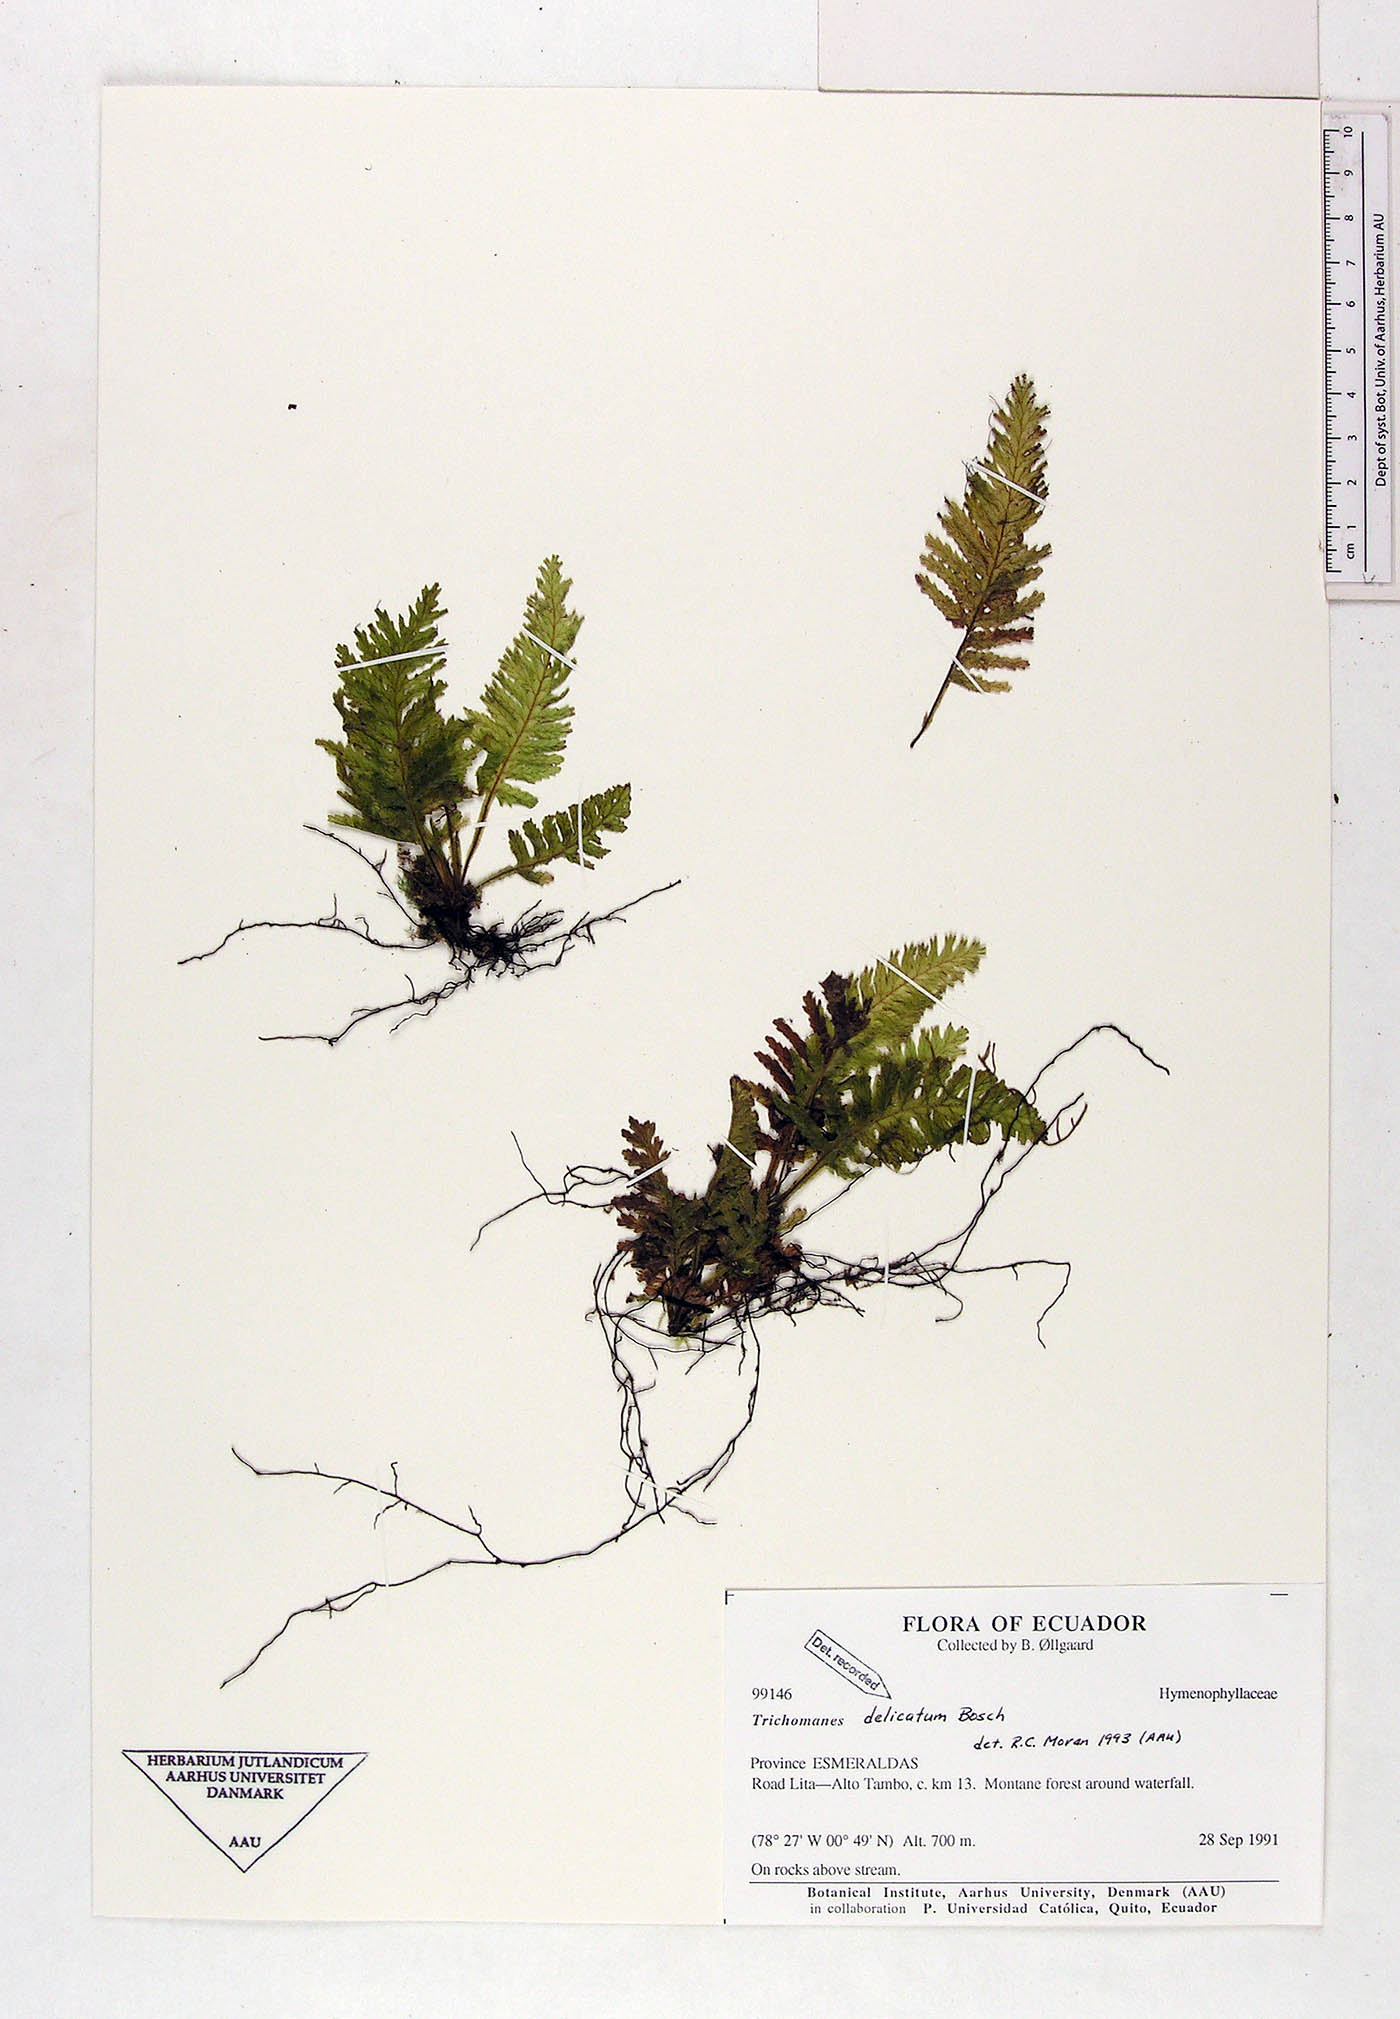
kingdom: Plantae
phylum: Tracheophyta
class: Polypodiopsida
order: Hymenophyllales
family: Hymenophyllaceae
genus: Trichomanes
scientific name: Trichomanes delicatum
